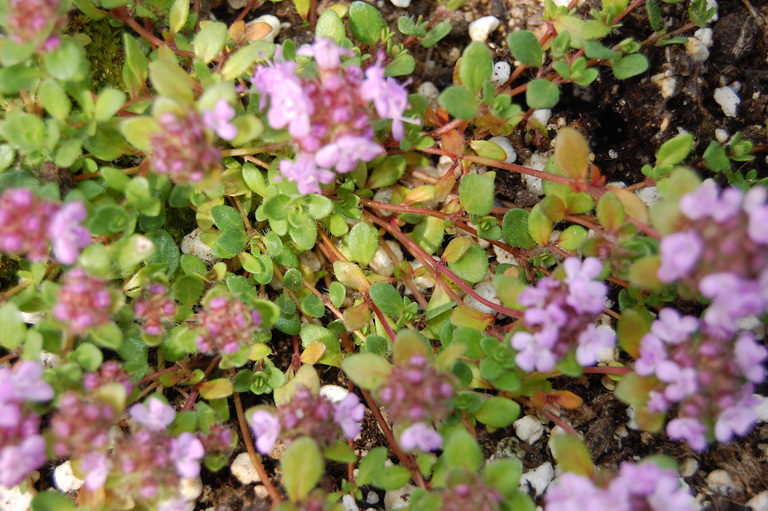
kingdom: Plantae
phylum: Tracheophyta
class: Magnoliopsida
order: Lamiales
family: Lamiaceae
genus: Thymus
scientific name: Thymus praecox
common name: Wild thyme
